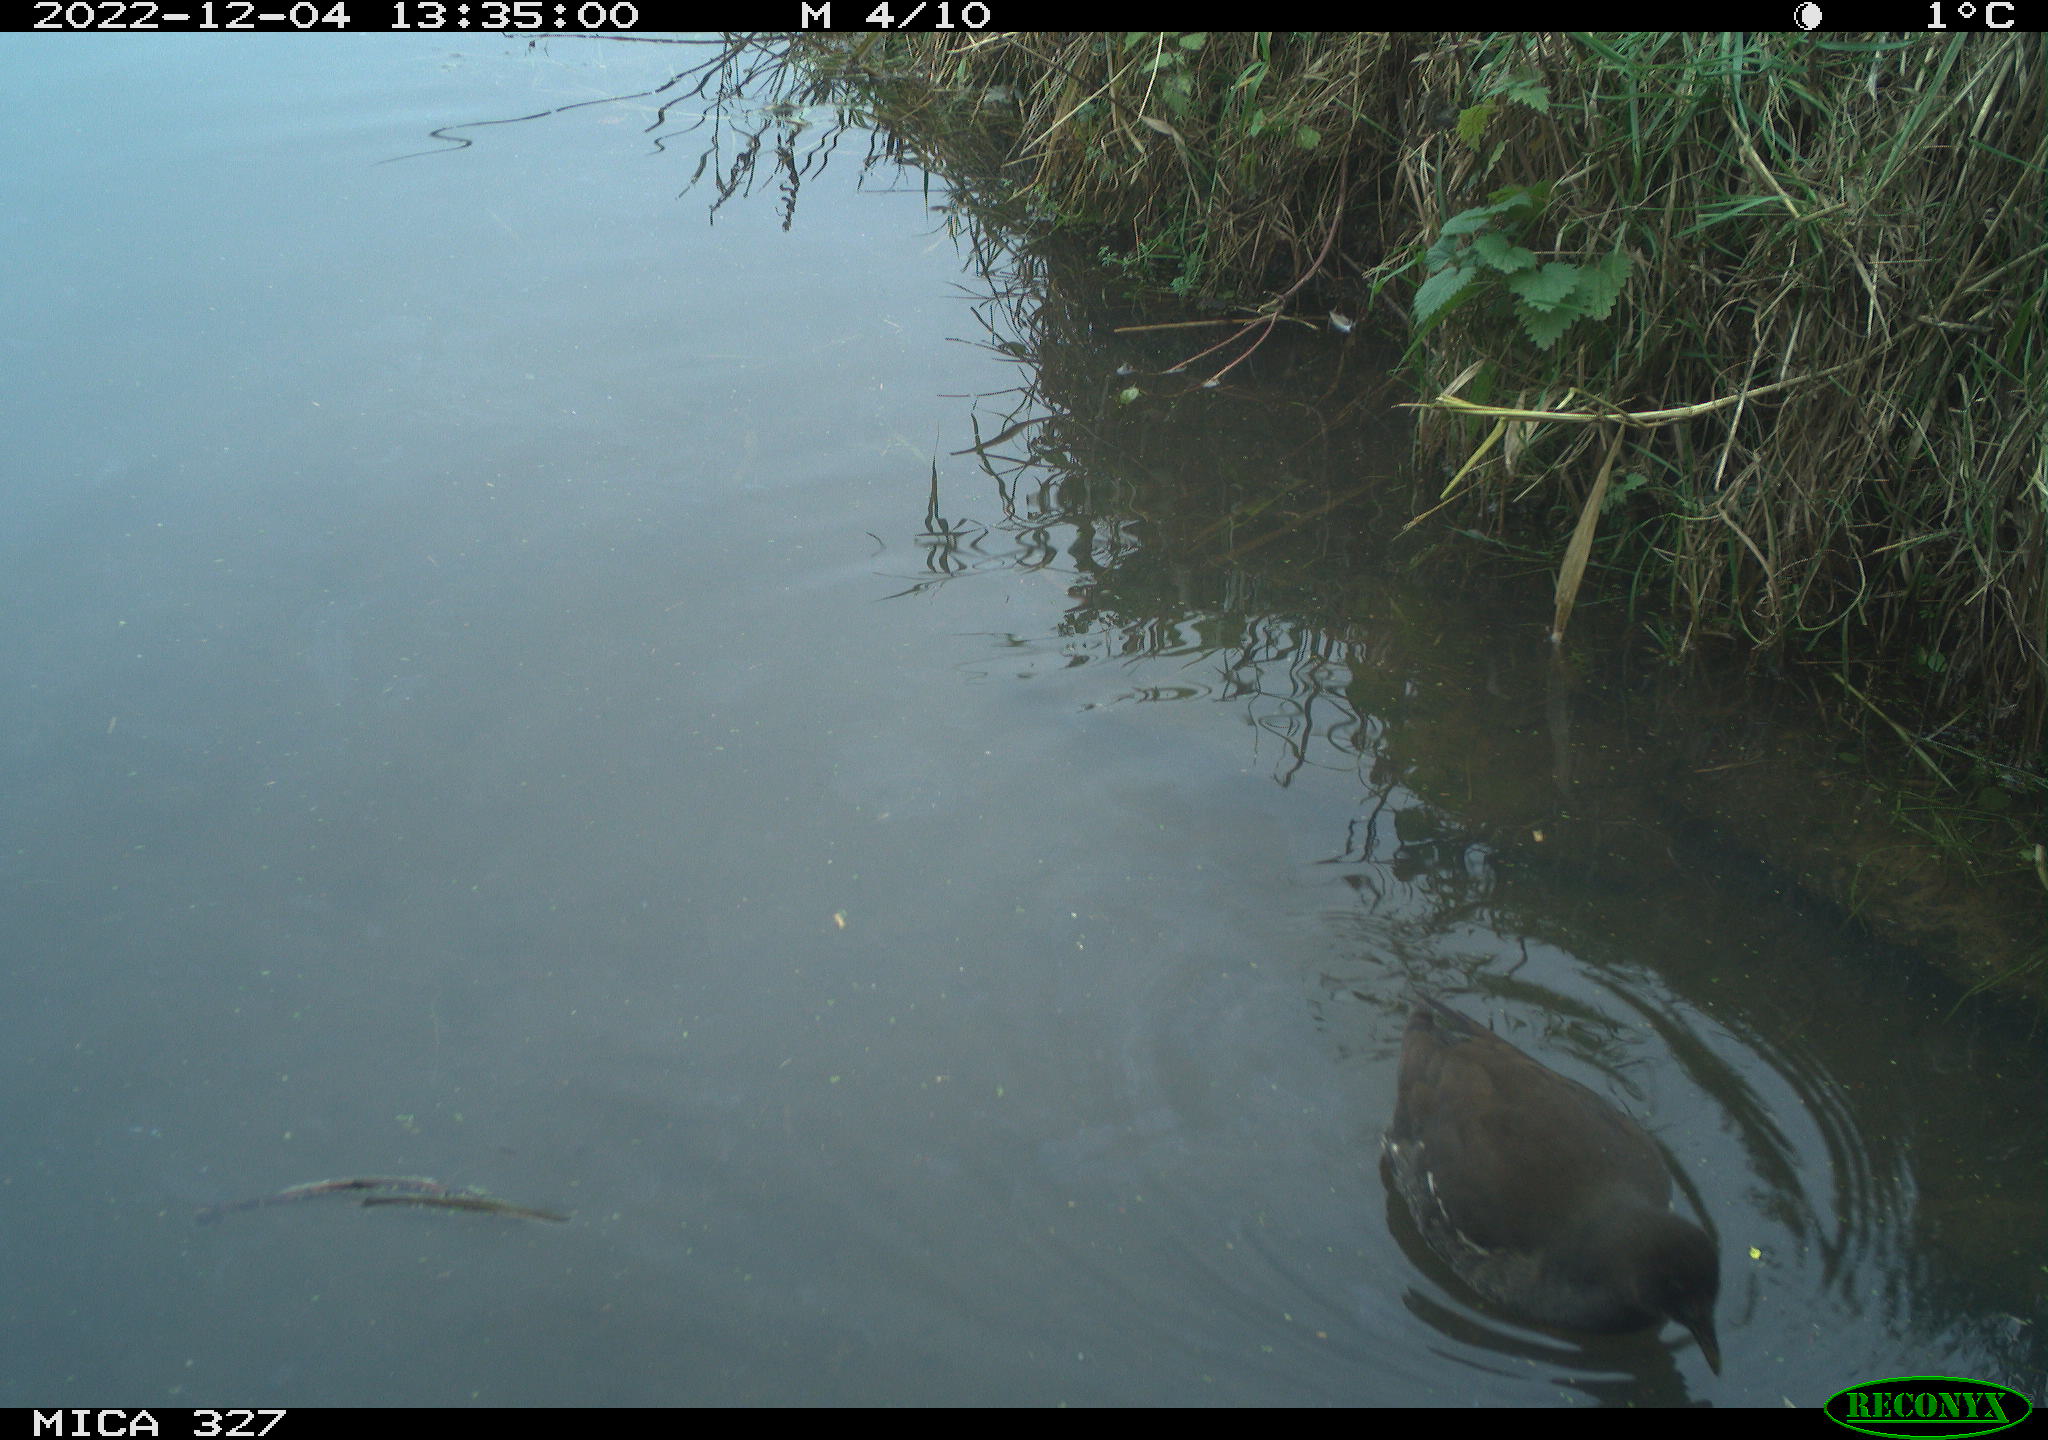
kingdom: Animalia
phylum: Chordata
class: Aves
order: Gruiformes
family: Rallidae
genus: Gallinula
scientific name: Gallinula chloropus
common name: Common moorhen
